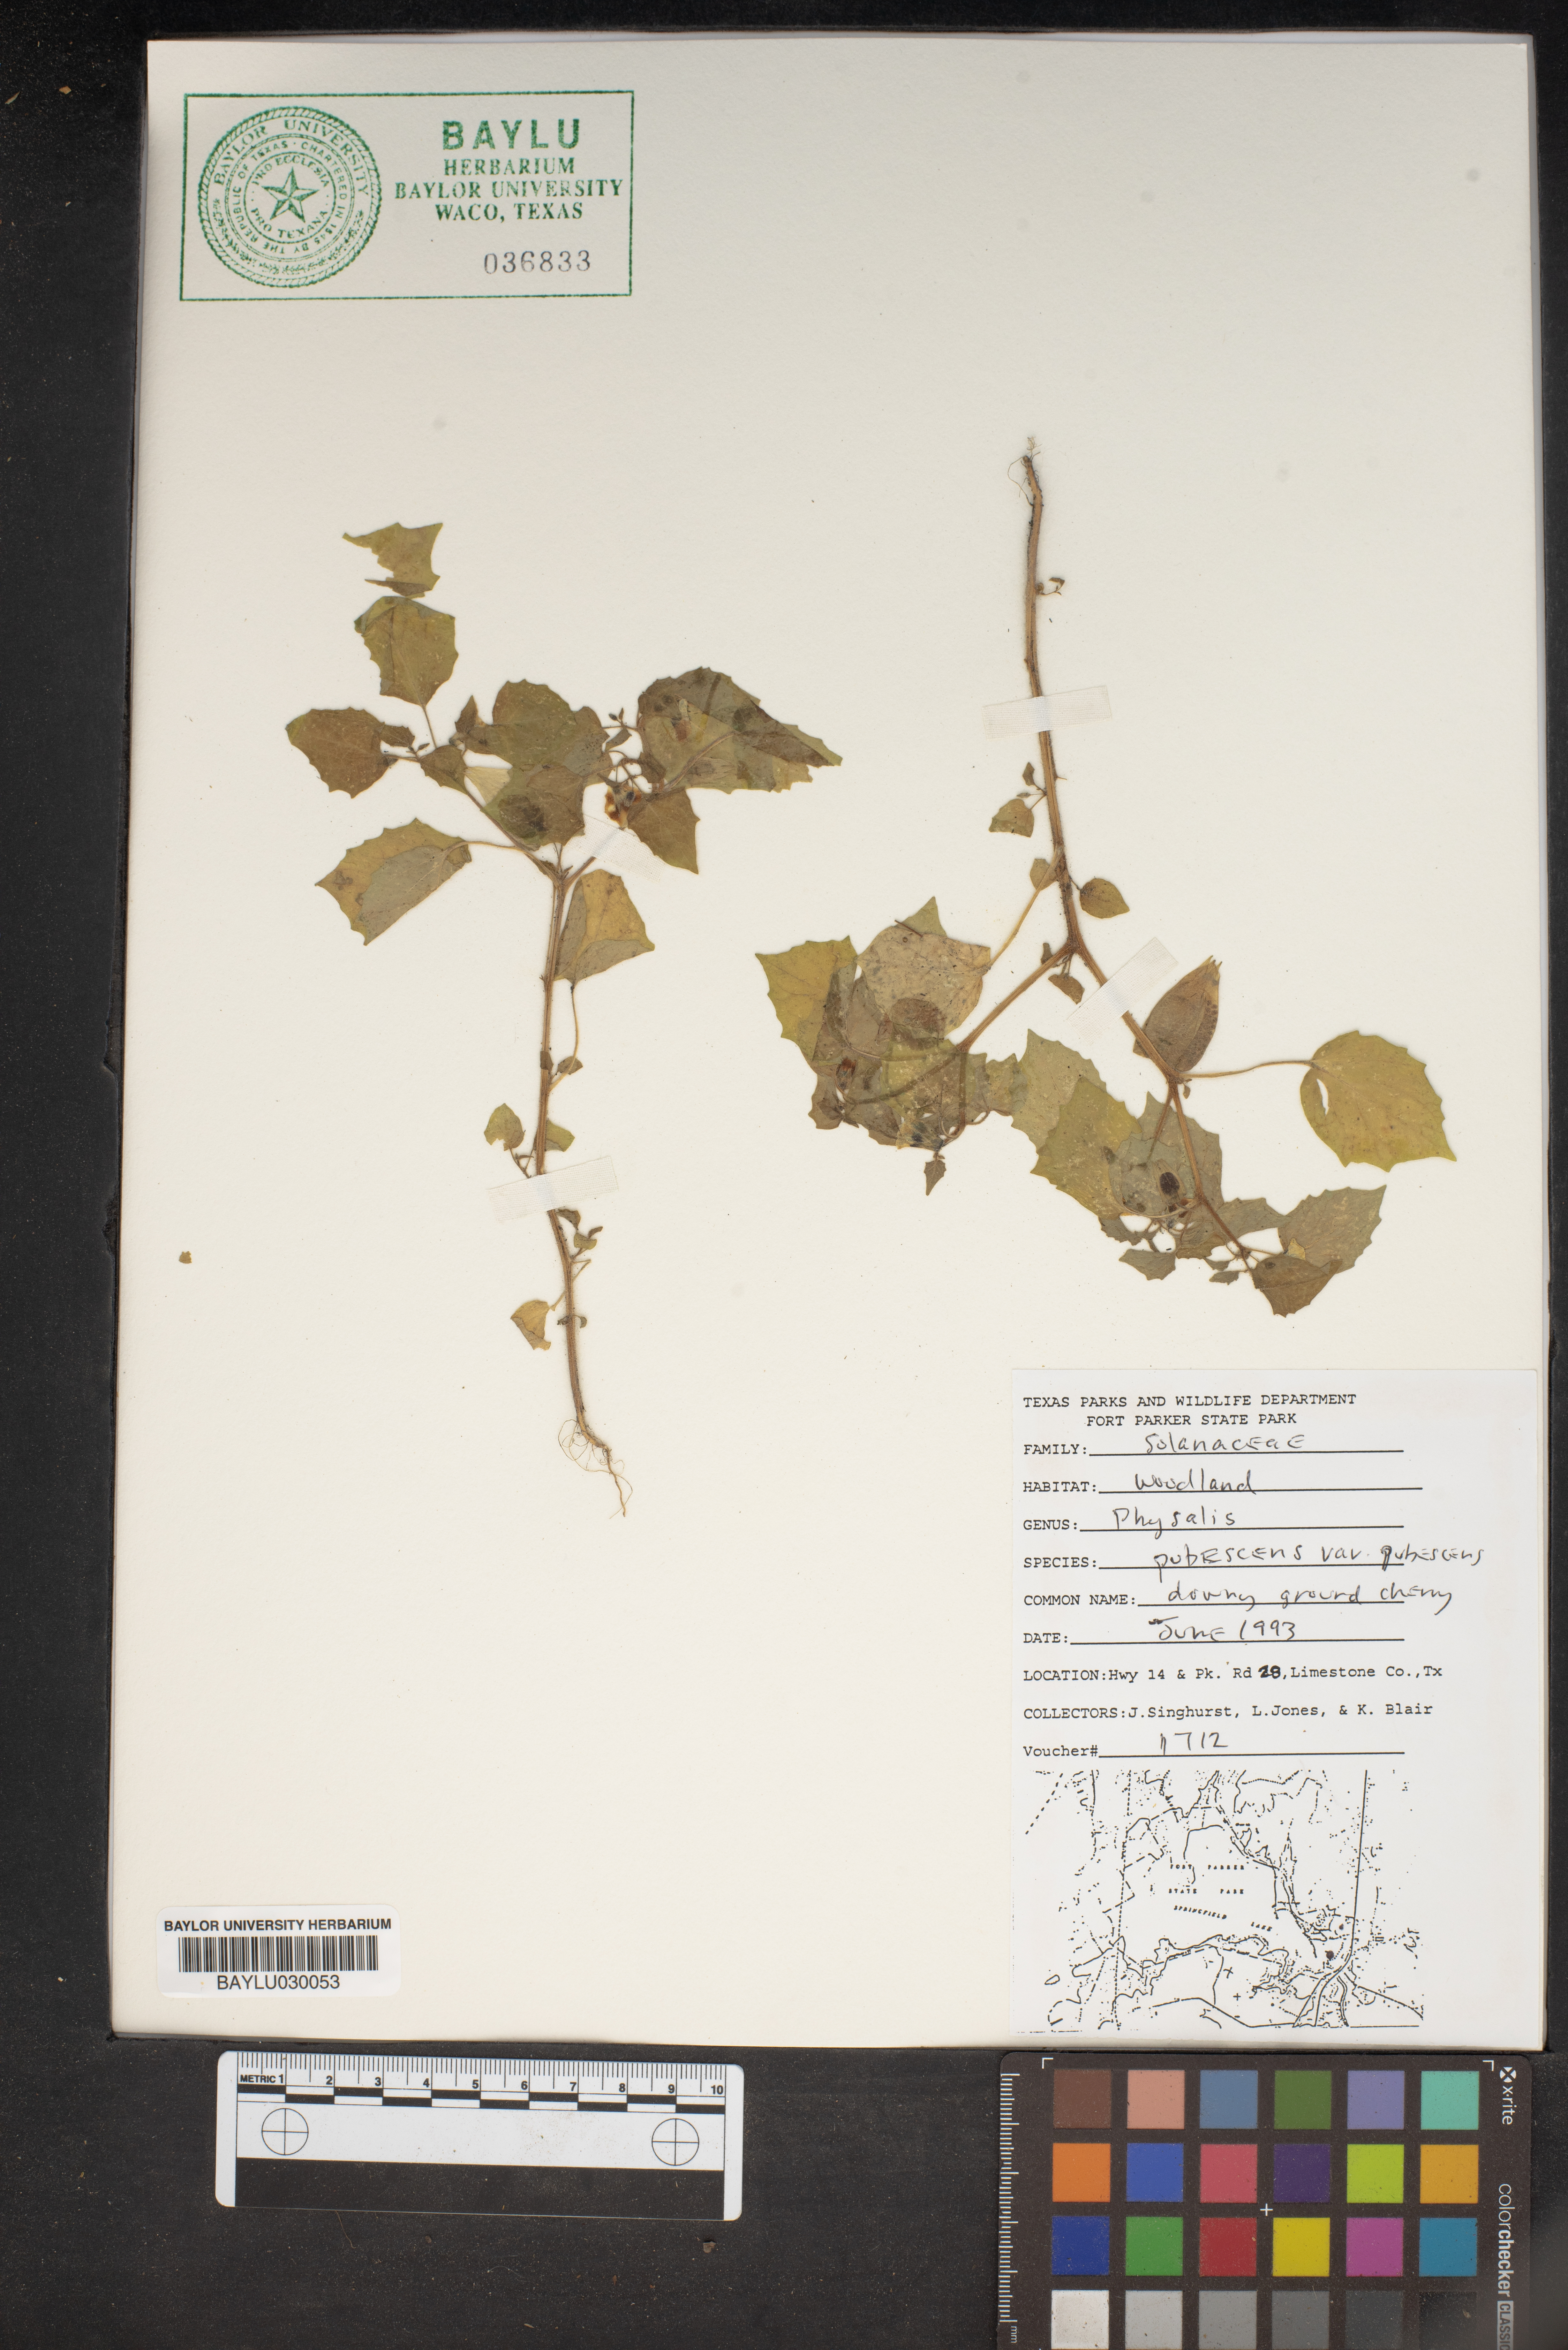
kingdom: Plantae
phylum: Tracheophyta
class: Magnoliopsida
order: Solanales
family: Solanaceae
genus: Physalis
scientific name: Physalis pubescens
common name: Downy ground-cherry
